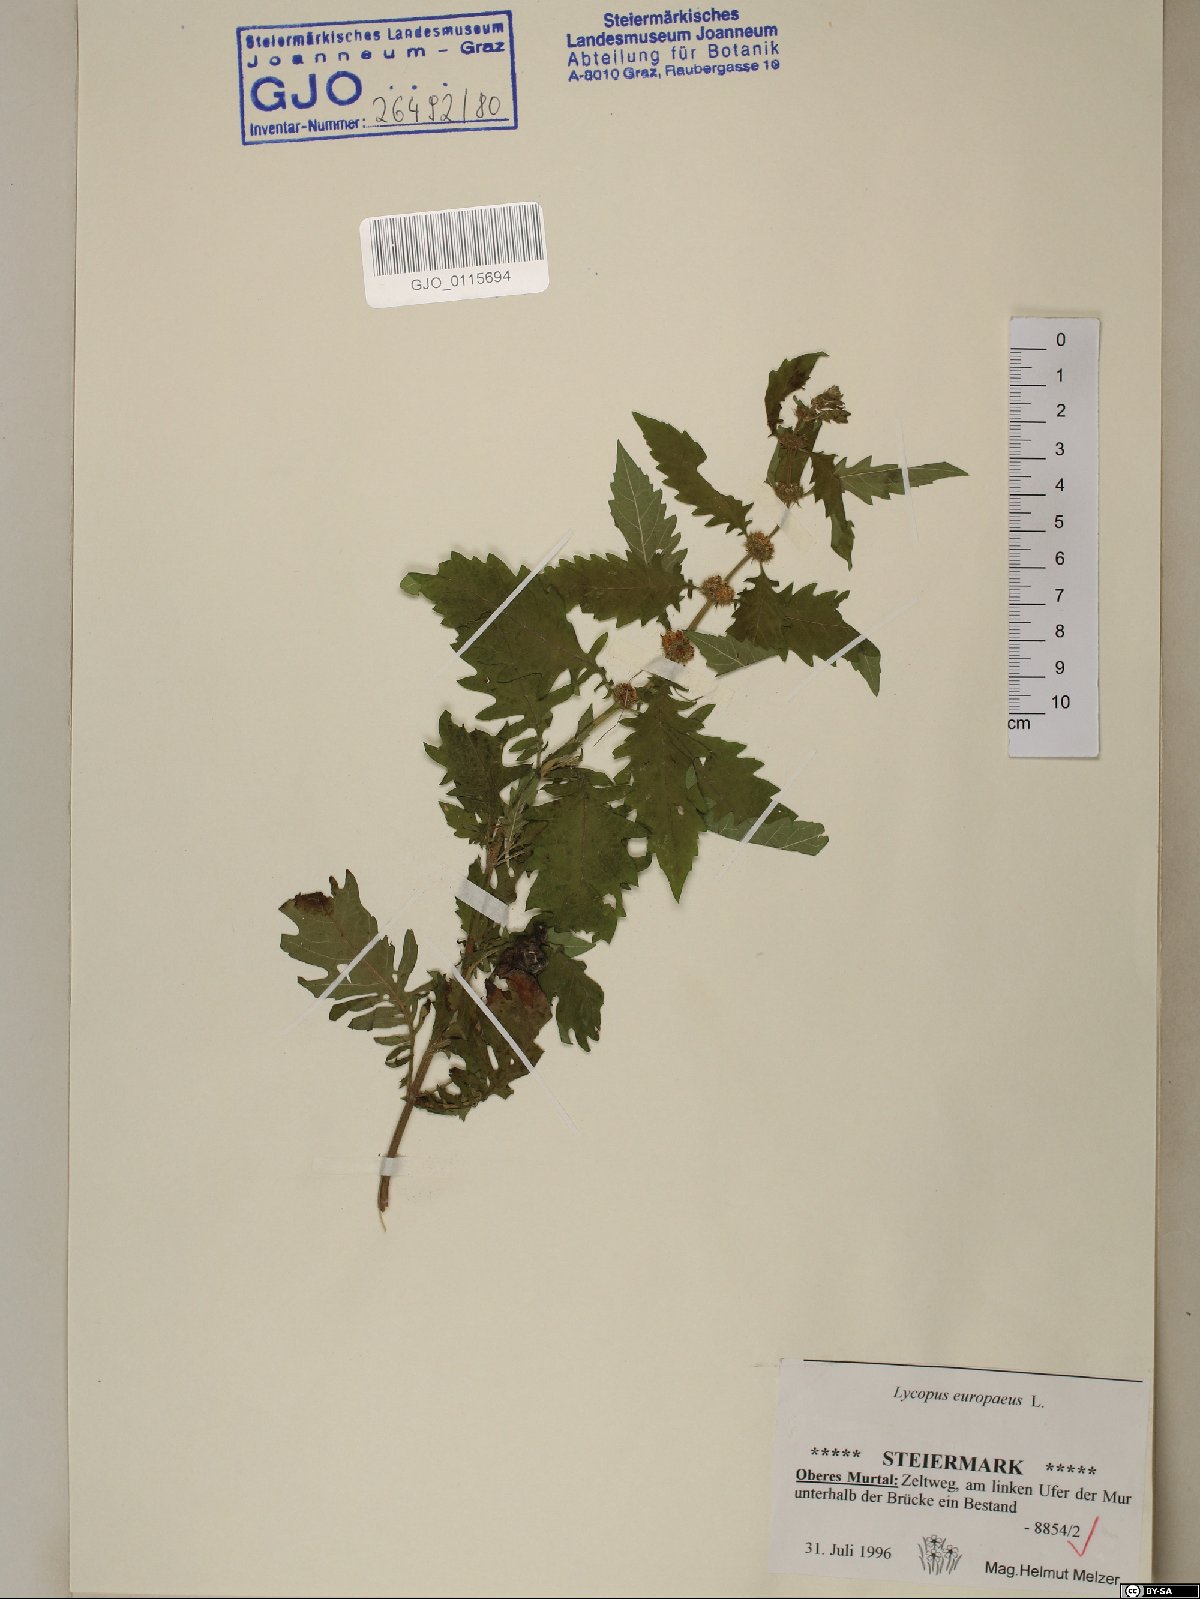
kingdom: Plantae
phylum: Tracheophyta
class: Magnoliopsida
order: Lamiales
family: Lamiaceae
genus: Lycopus
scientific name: Lycopus europaeus
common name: European bugleweed
